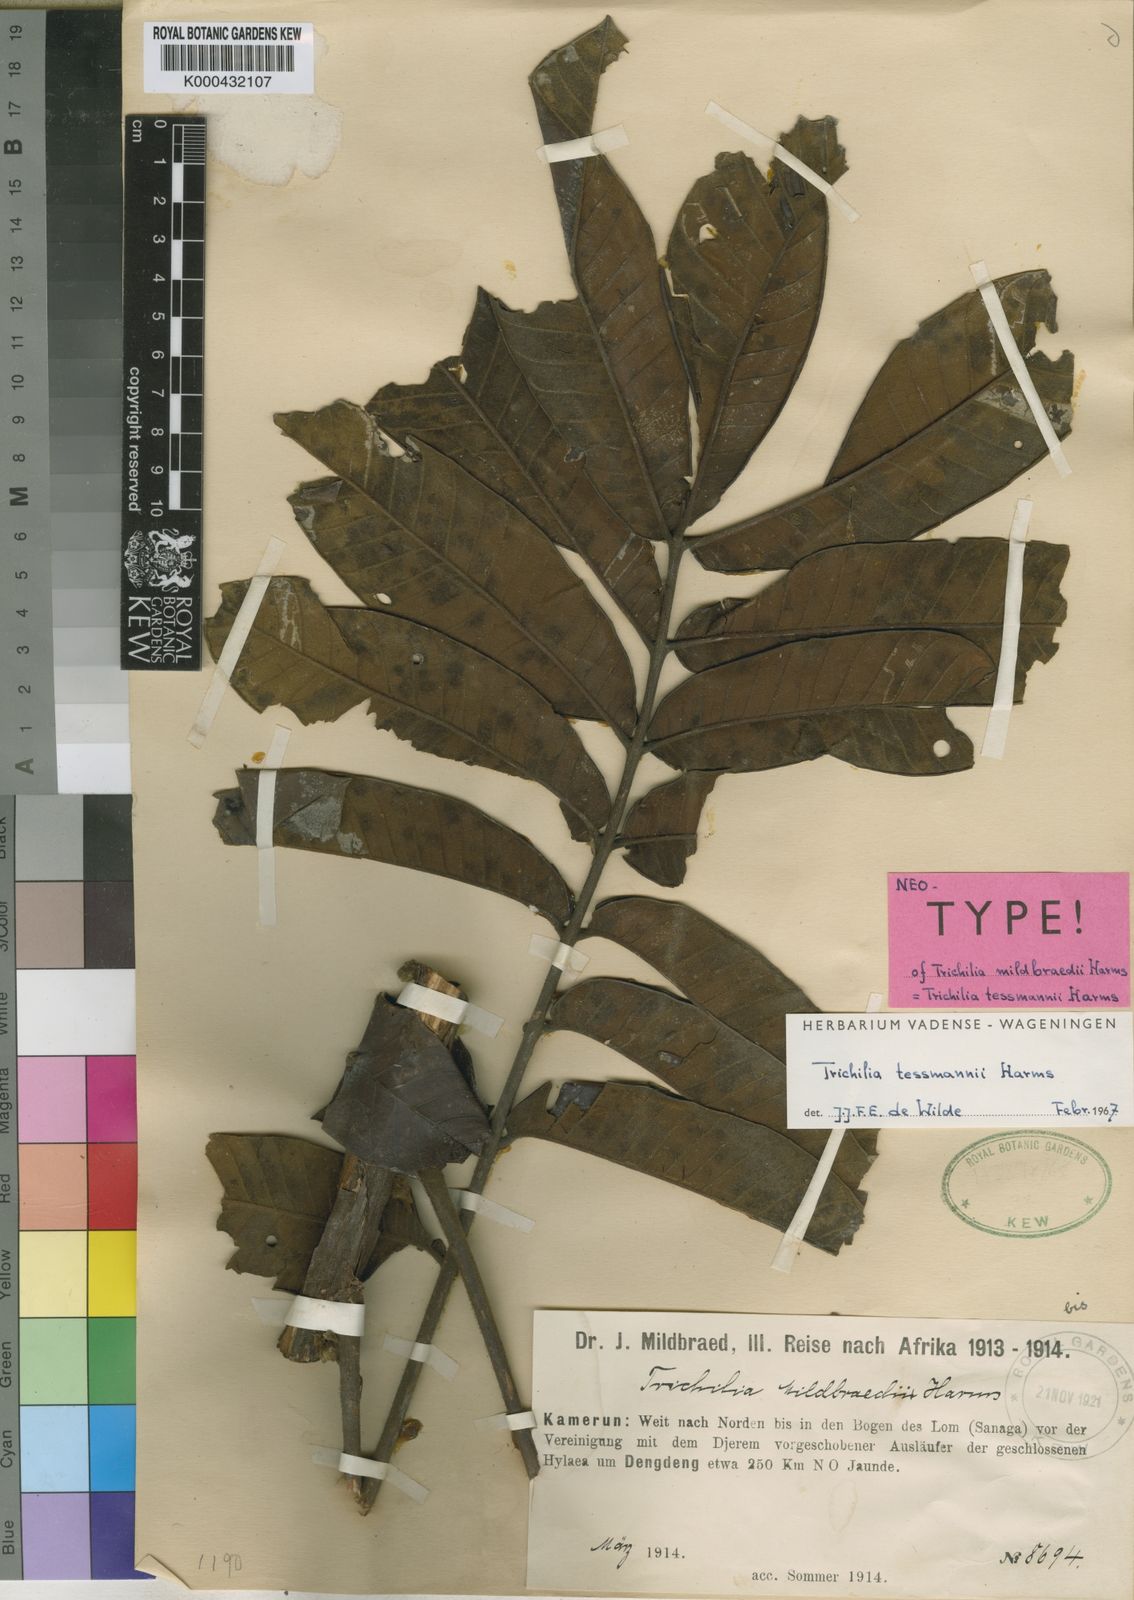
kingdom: Plantae
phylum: Tracheophyta
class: Magnoliopsida
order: Sapindales
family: Meliaceae
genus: Trichilia
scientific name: Trichilia tessmannii
